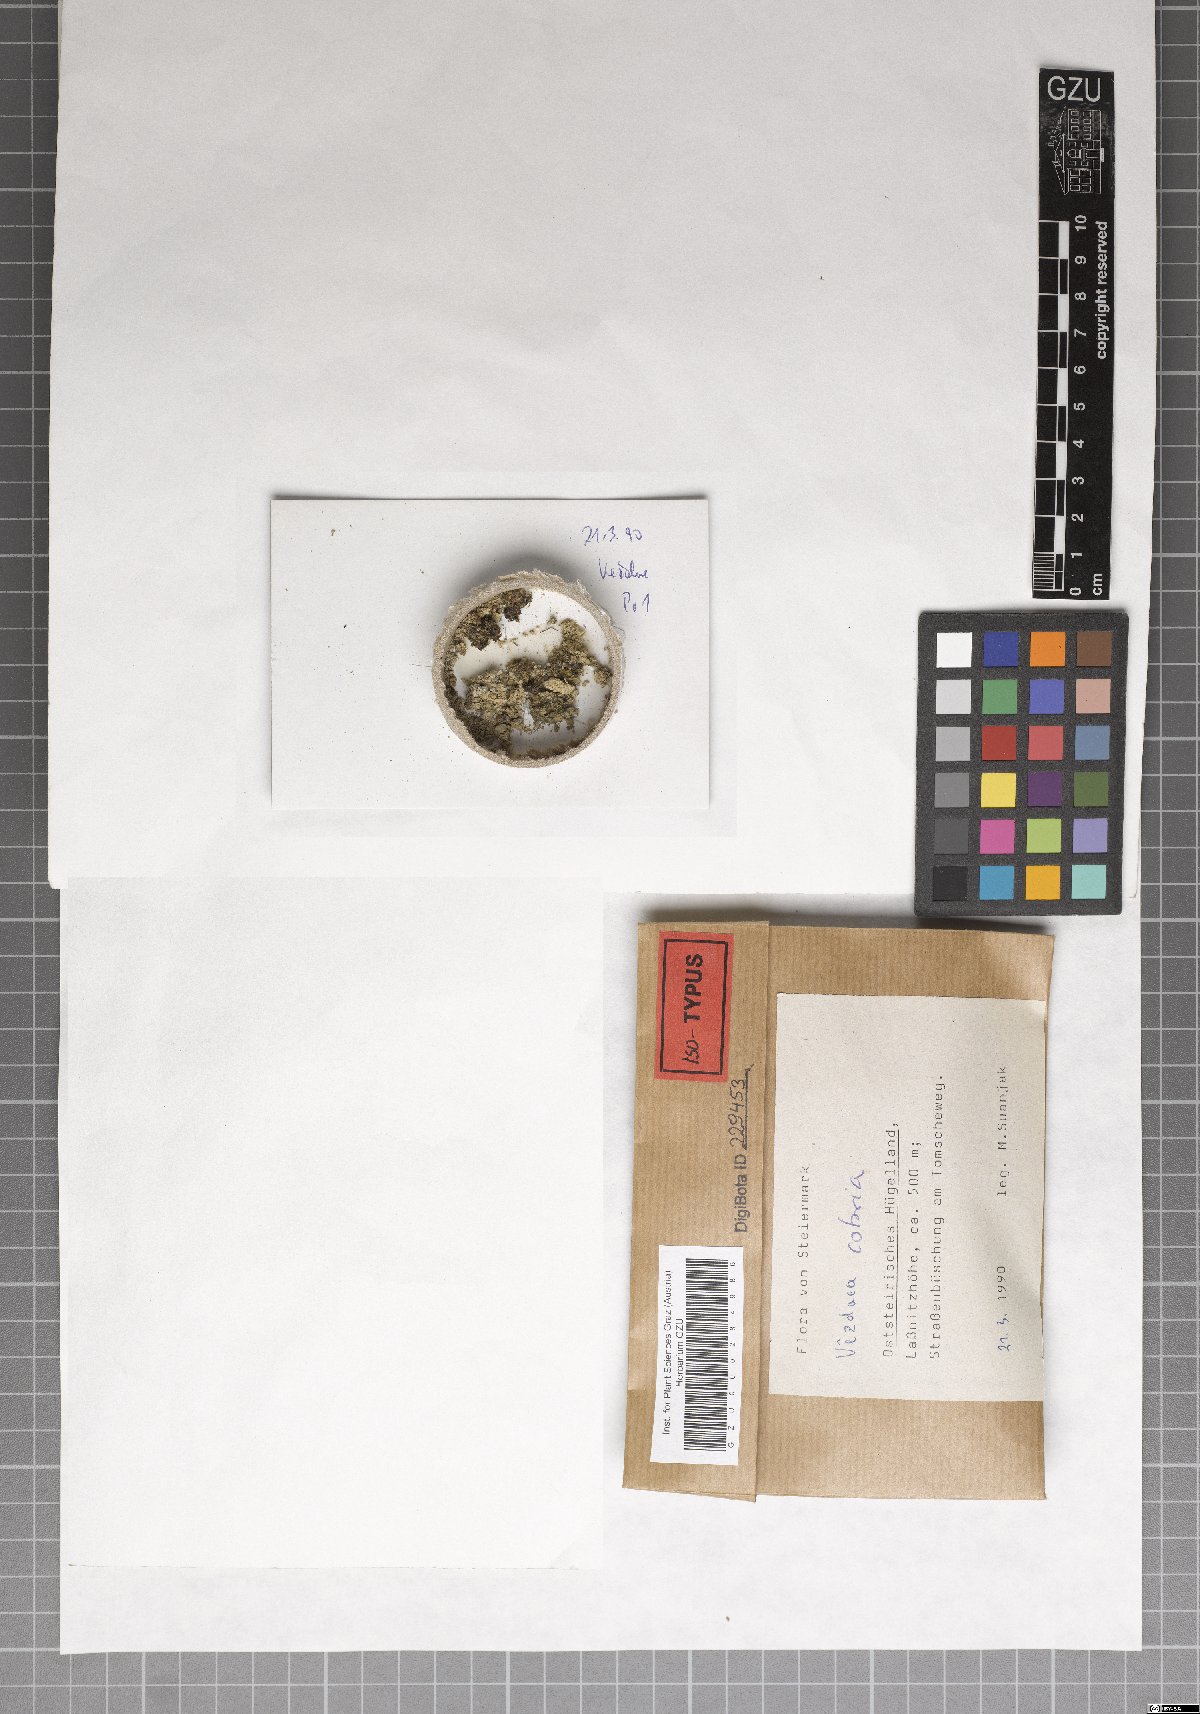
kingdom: Fungi
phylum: Ascomycota
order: Vezdaeales
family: Vezdaeaceae
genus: Vezdaea
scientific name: Vezdaea cobria
